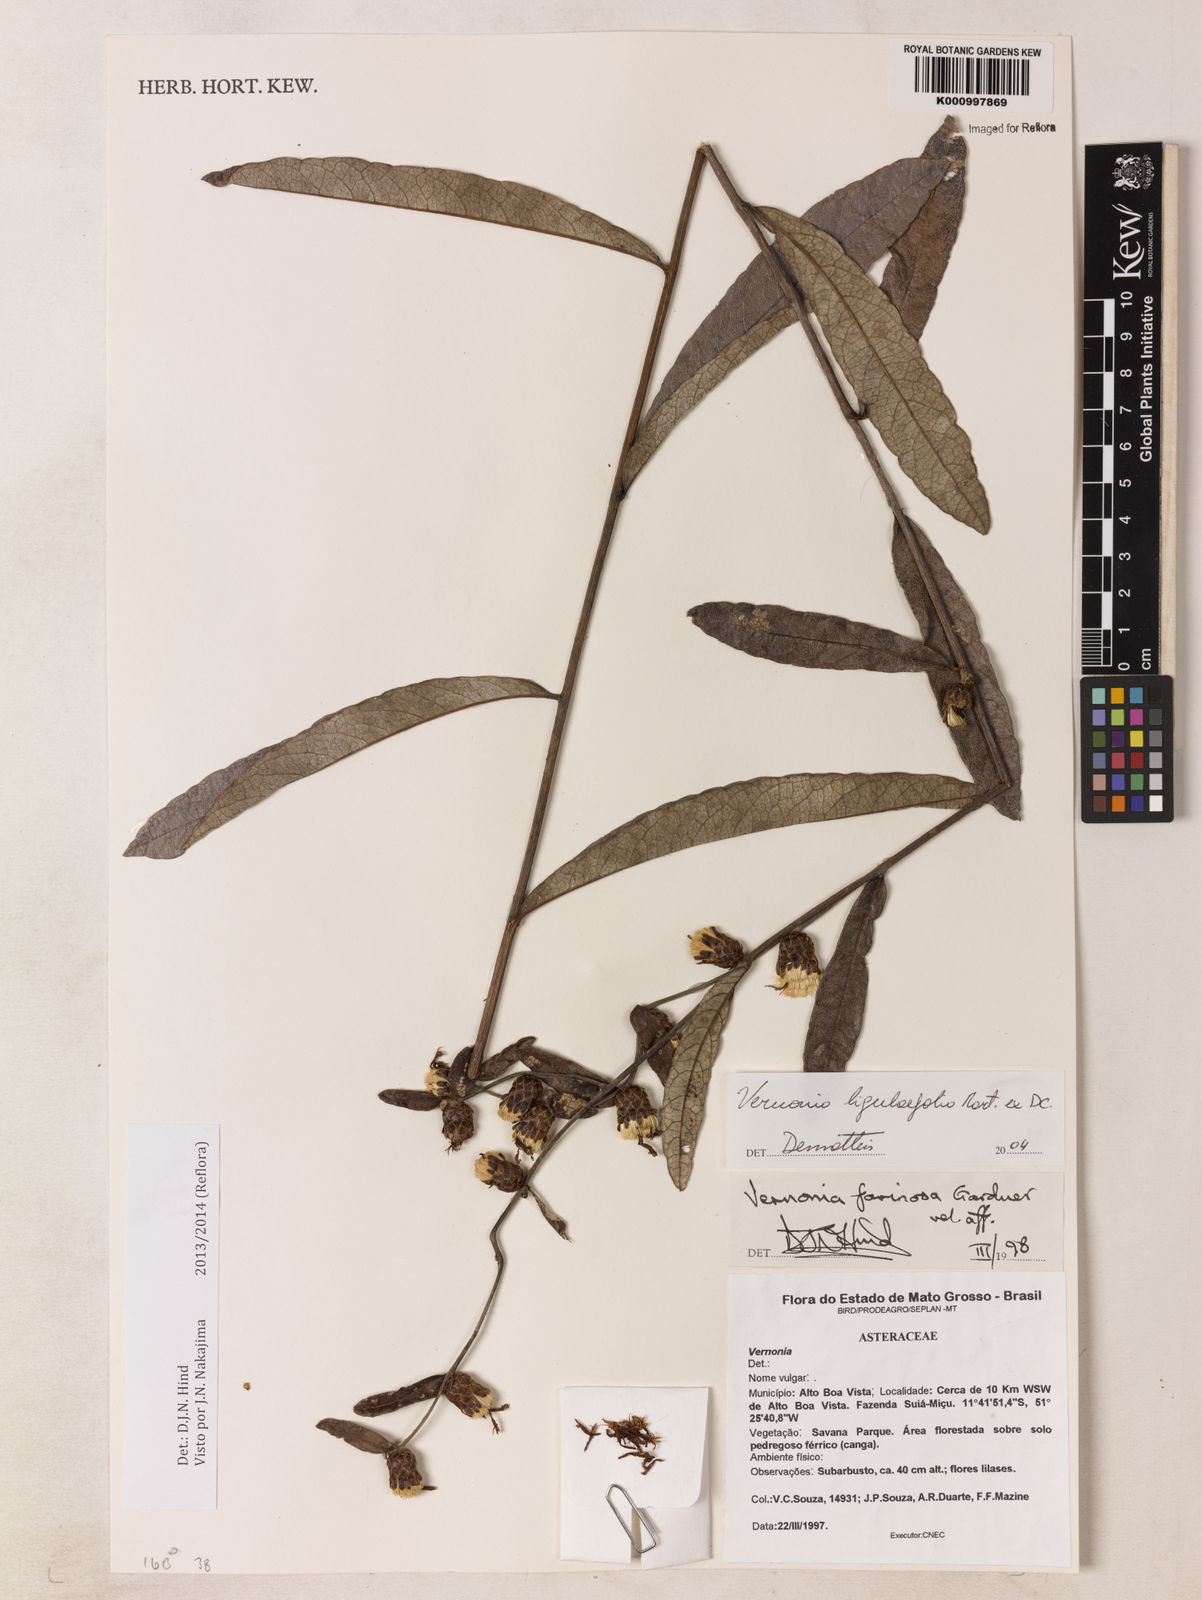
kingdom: Plantae
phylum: Tracheophyta
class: Magnoliopsida
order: Asterales
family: Asteraceae
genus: Lessingianthus
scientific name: Lessingianthus ligulifolius
